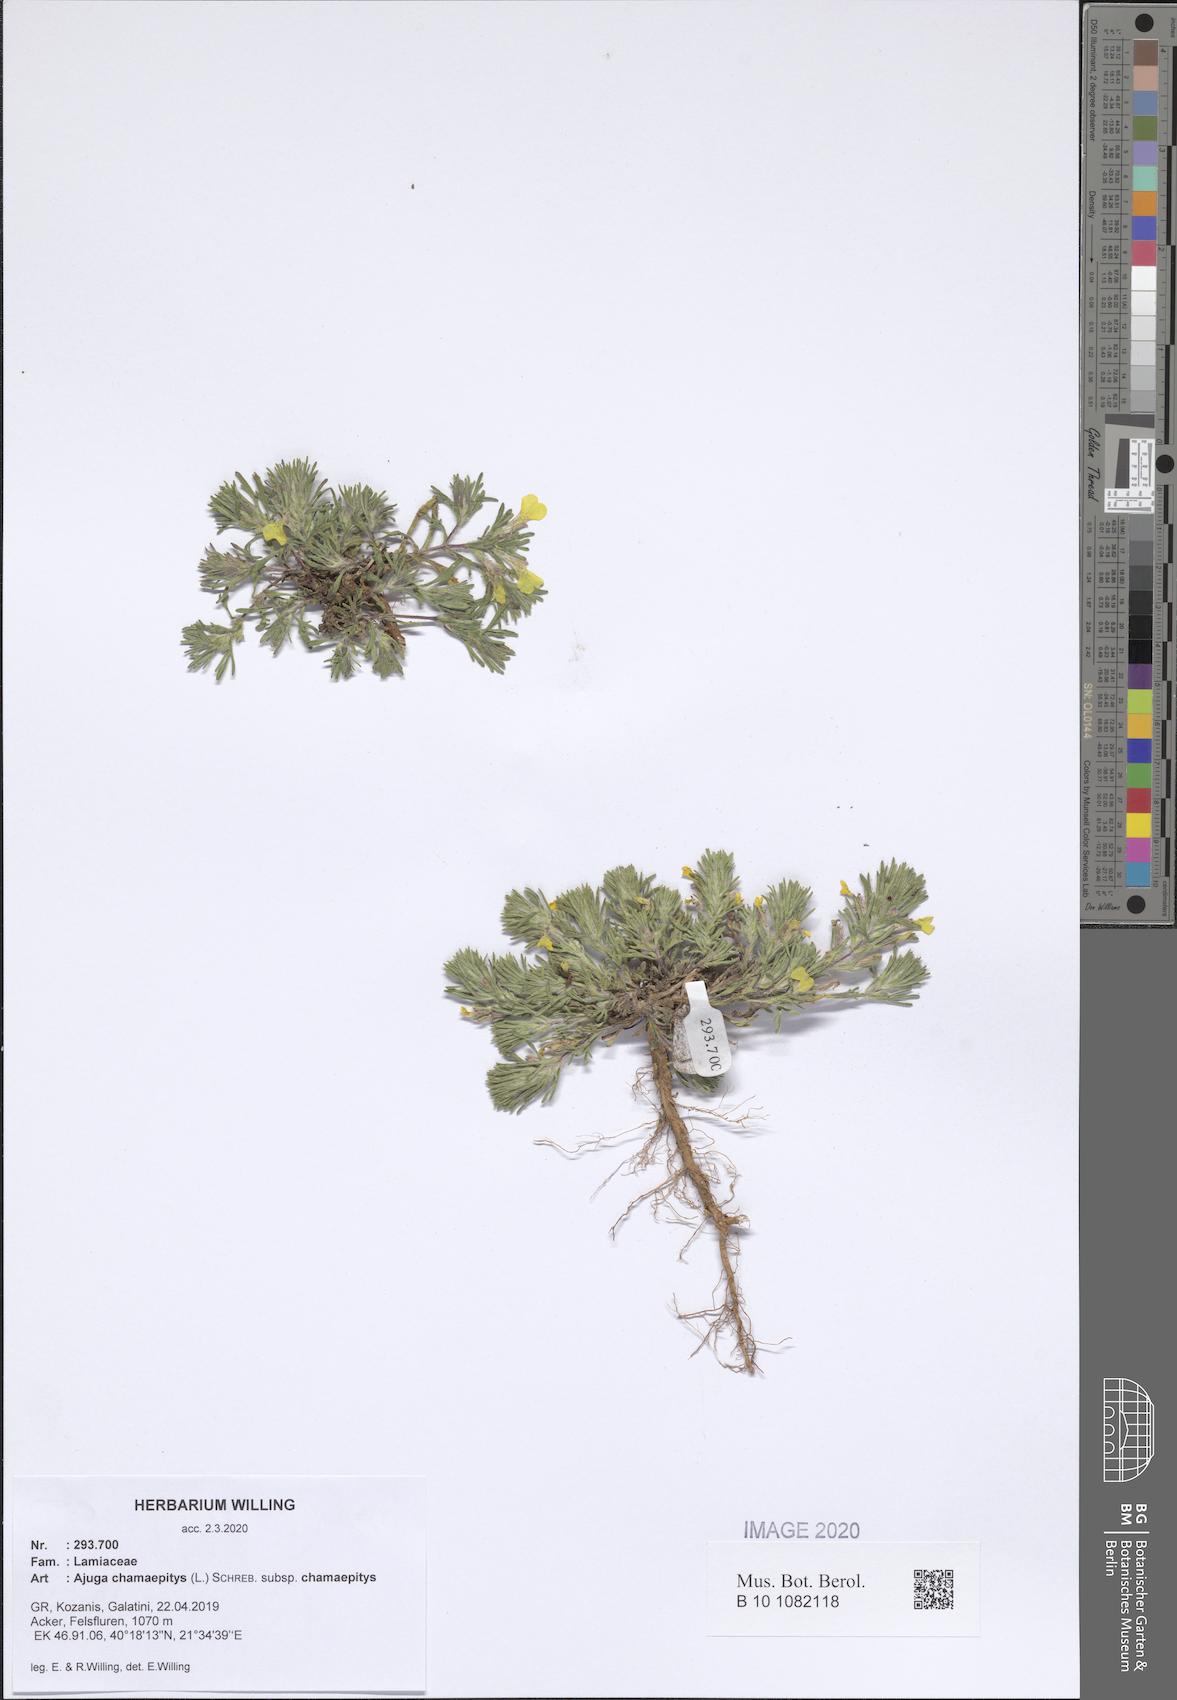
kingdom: Plantae
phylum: Tracheophyta
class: Magnoliopsida
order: Lamiales
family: Lamiaceae
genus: Ajuga
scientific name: Ajuga chamaepitys
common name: Ground-pine
